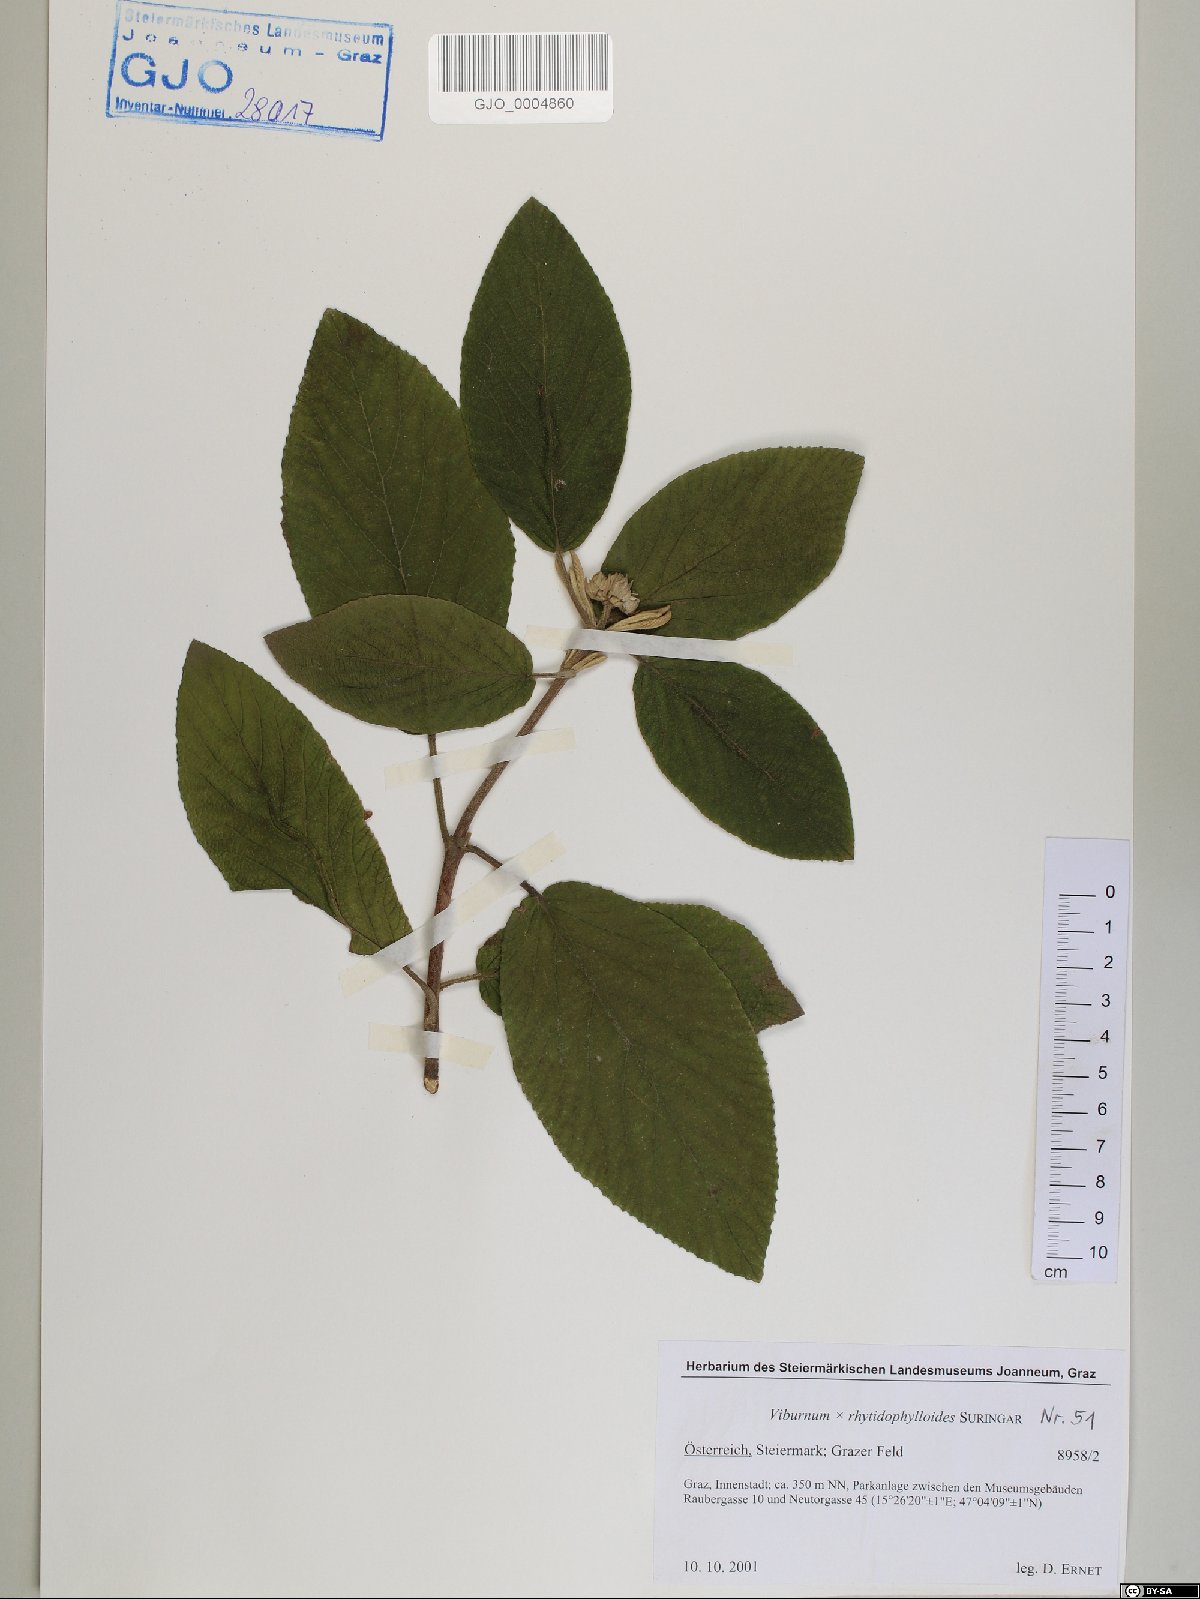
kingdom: Plantae
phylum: Tracheophyta
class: Magnoliopsida
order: Dipsacales
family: Viburnaceae
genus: Viburnum
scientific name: Viburnum rhytidophylloides
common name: Viburnum
